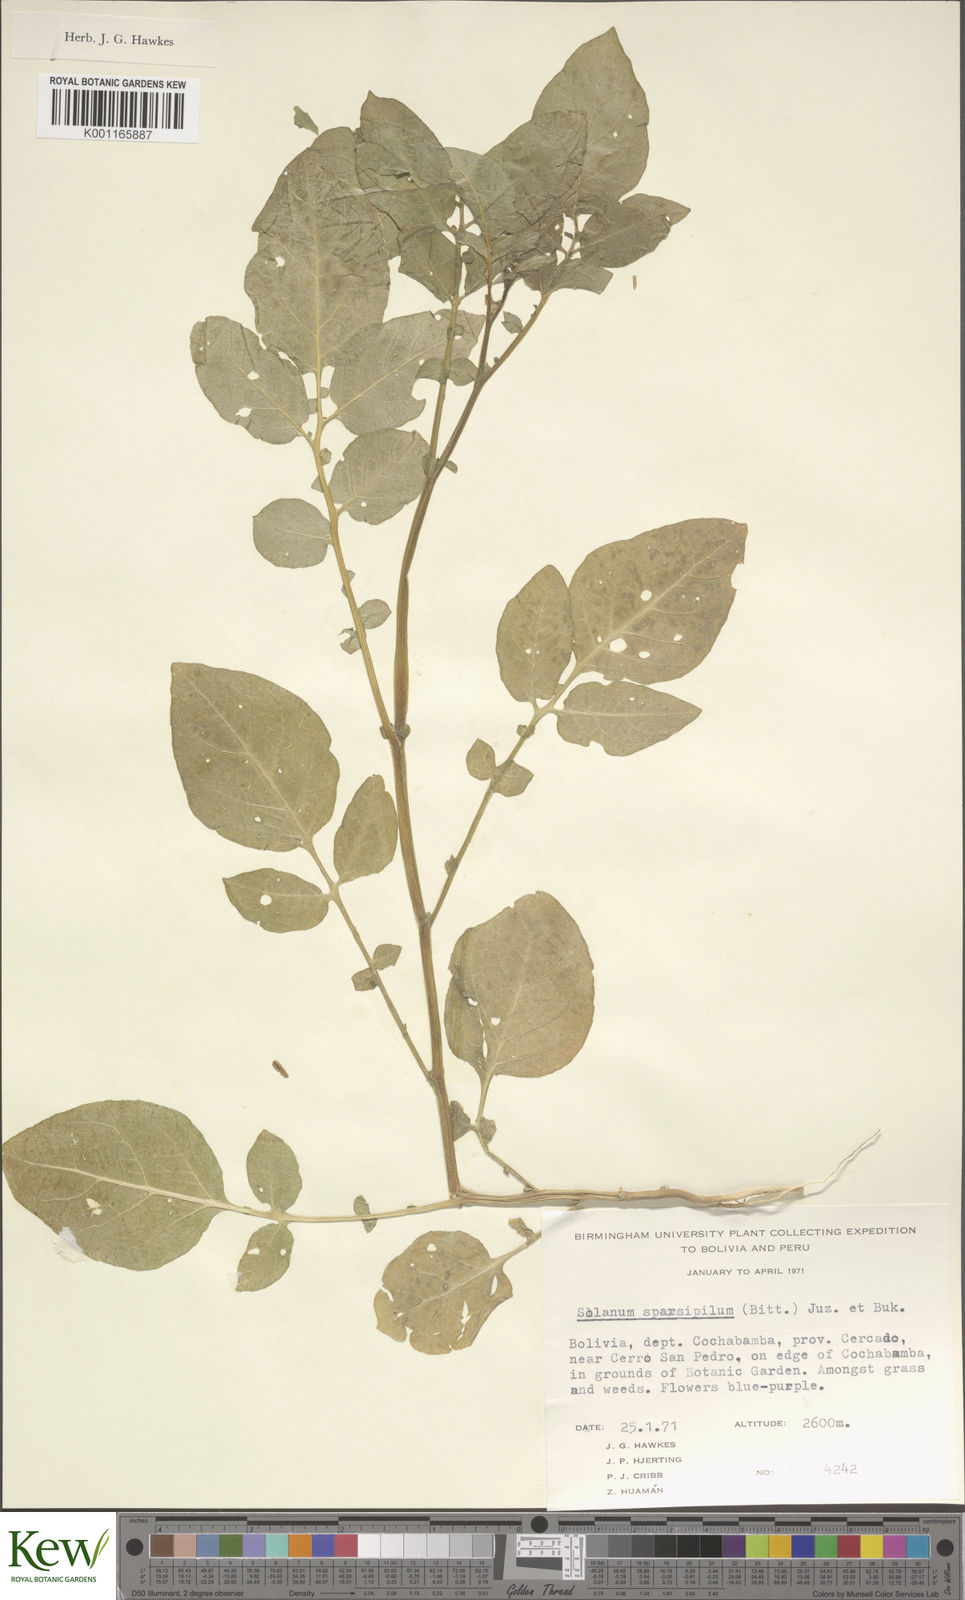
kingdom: Plantae
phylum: Tracheophyta
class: Magnoliopsida
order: Solanales
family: Solanaceae
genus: Solanum
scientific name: Solanum brevicaule
